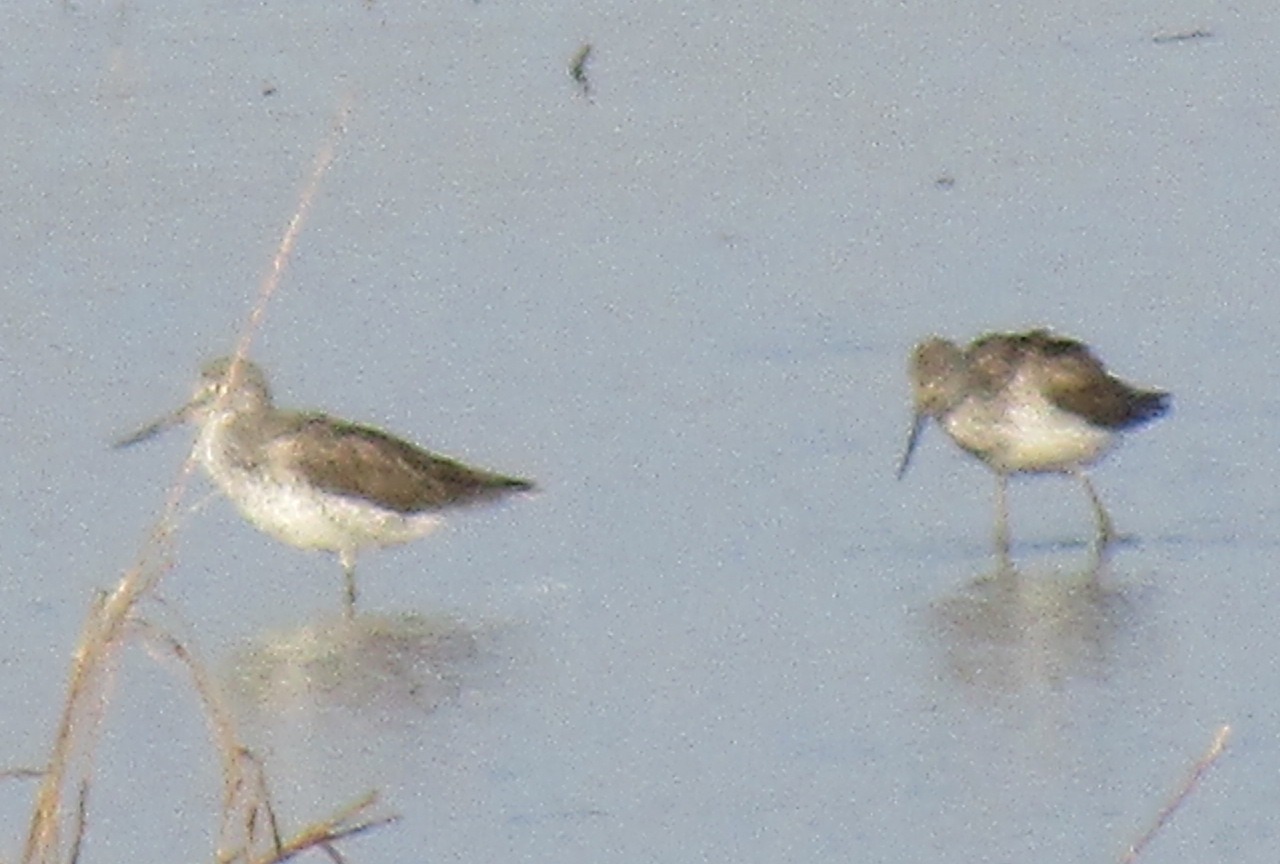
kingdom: Animalia
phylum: Chordata
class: Aves
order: Charadriiformes
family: Scolopacidae
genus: Tringa
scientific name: Tringa nebularia
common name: Hvidklire
